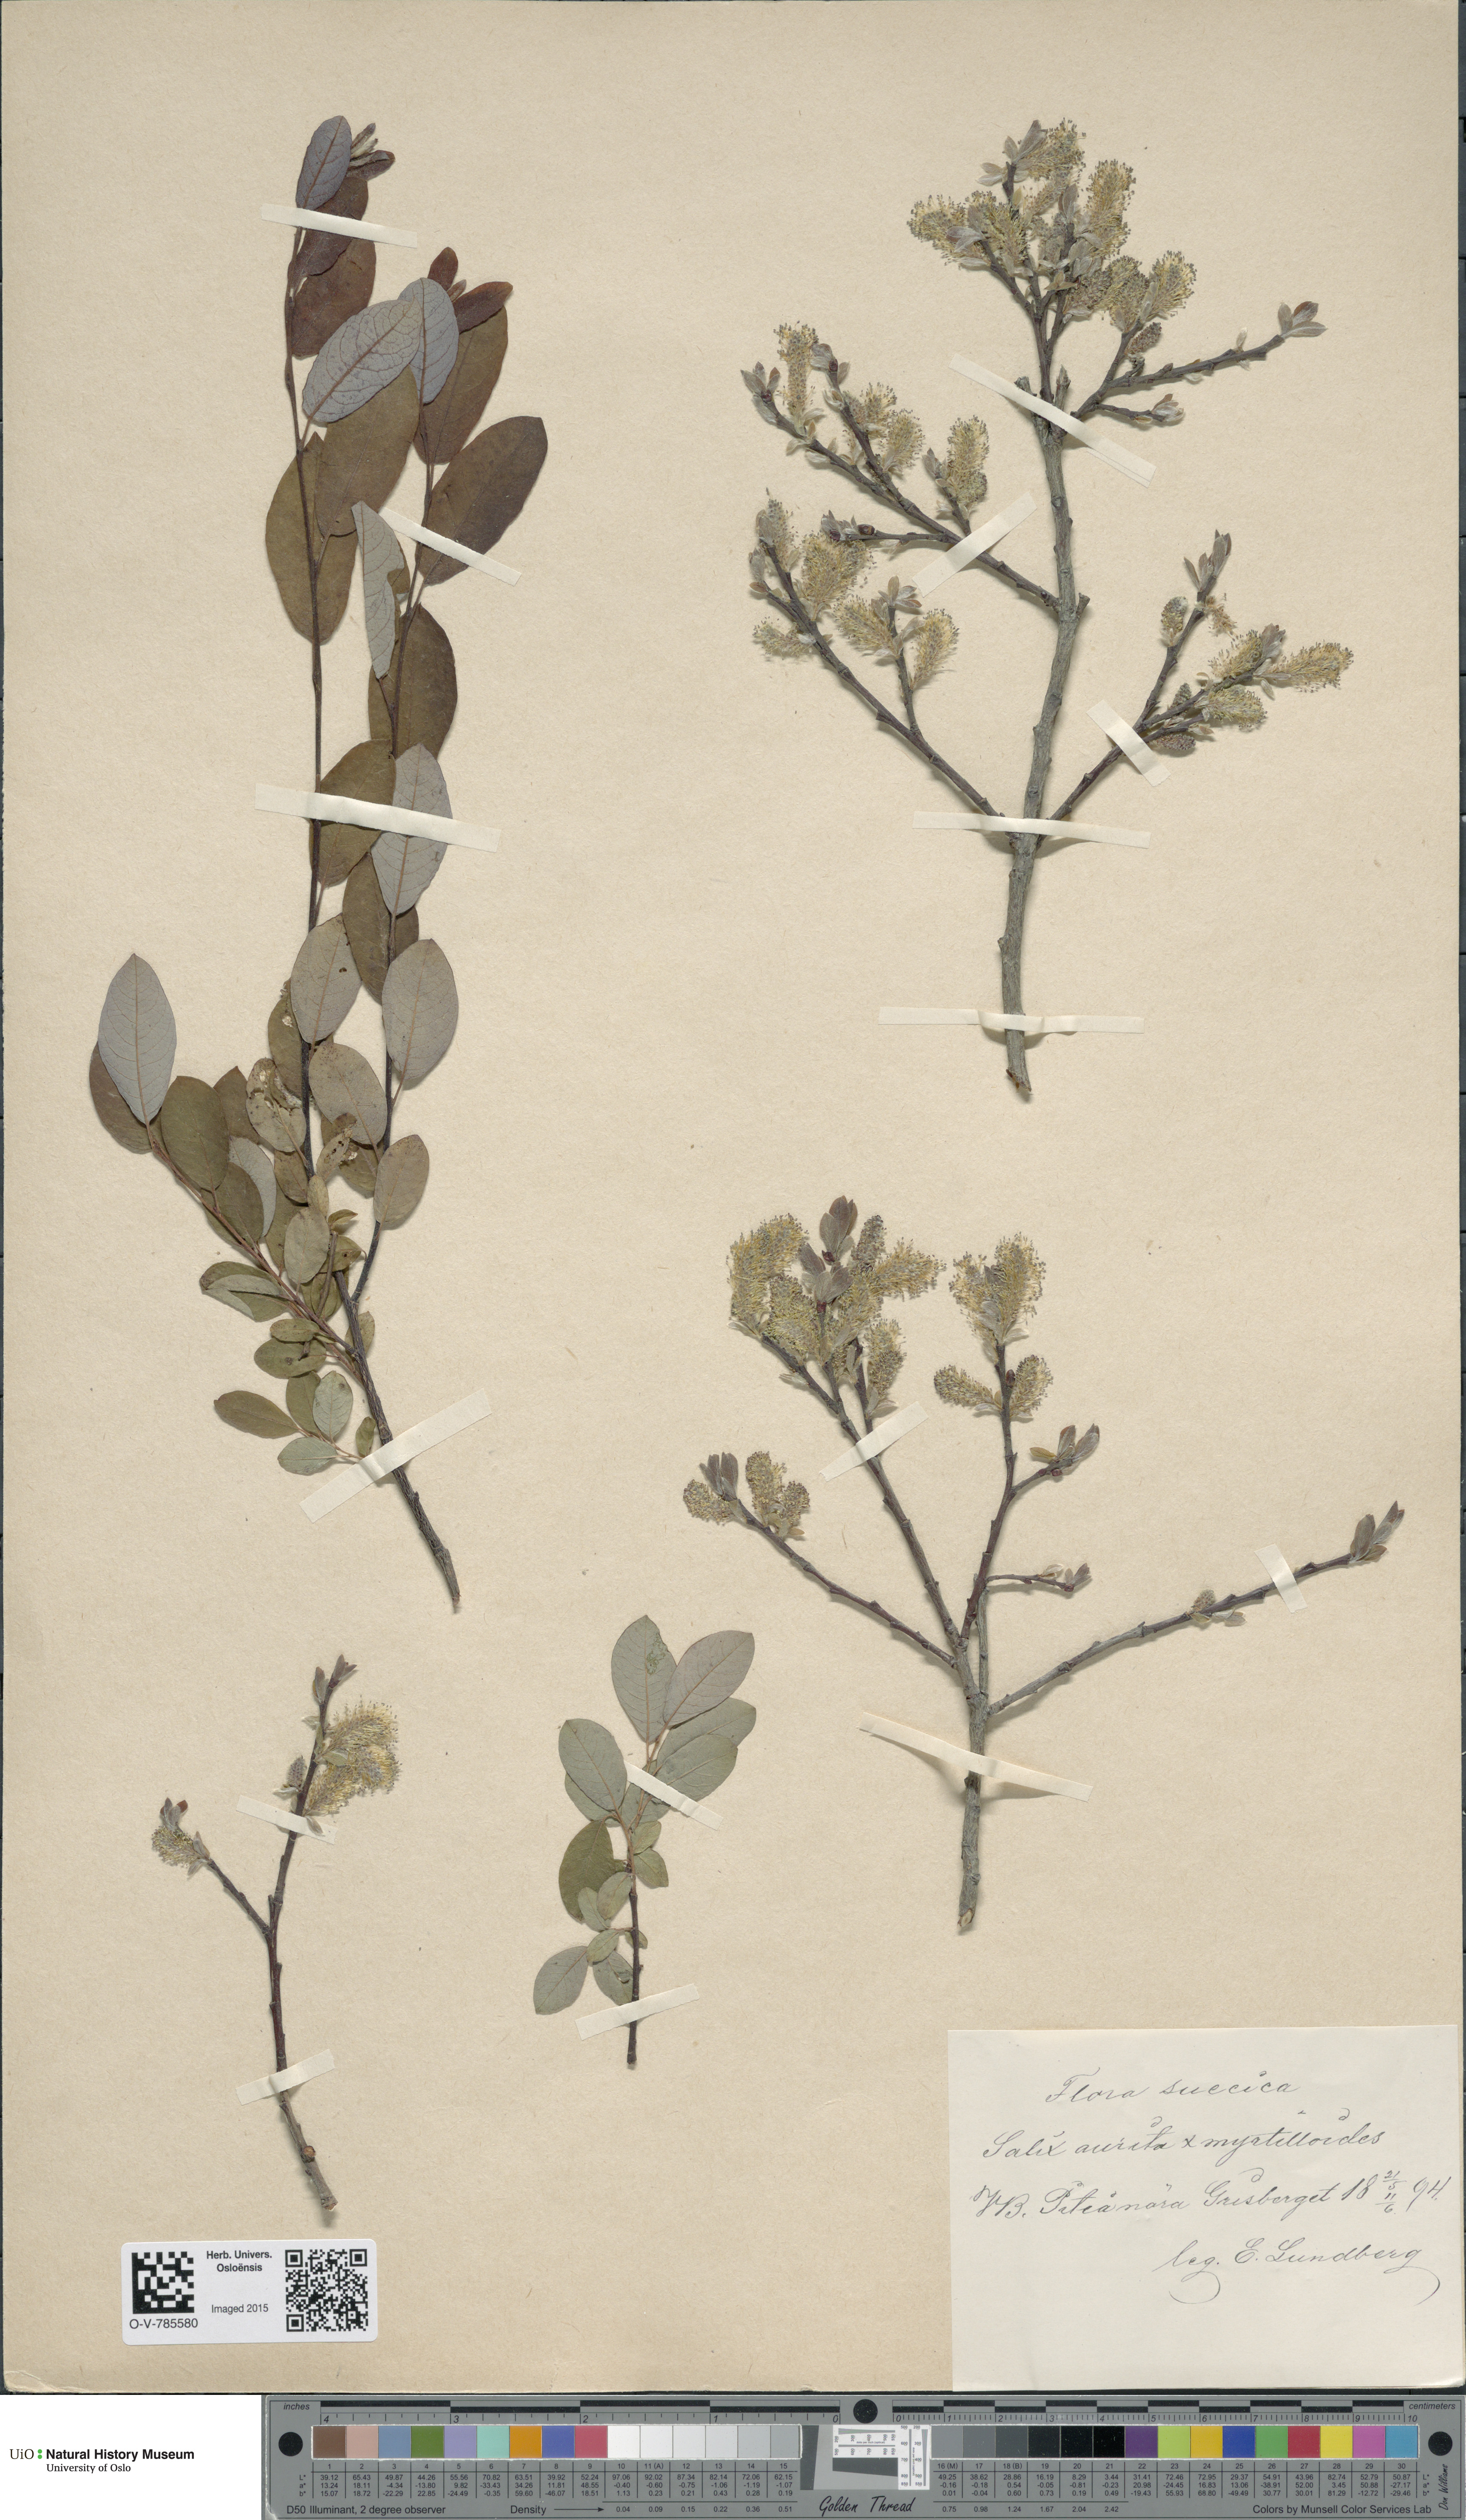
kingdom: Plantae
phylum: Tracheophyta
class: Magnoliopsida
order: Malpighiales
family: Salicaceae
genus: Salix
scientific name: Salix
